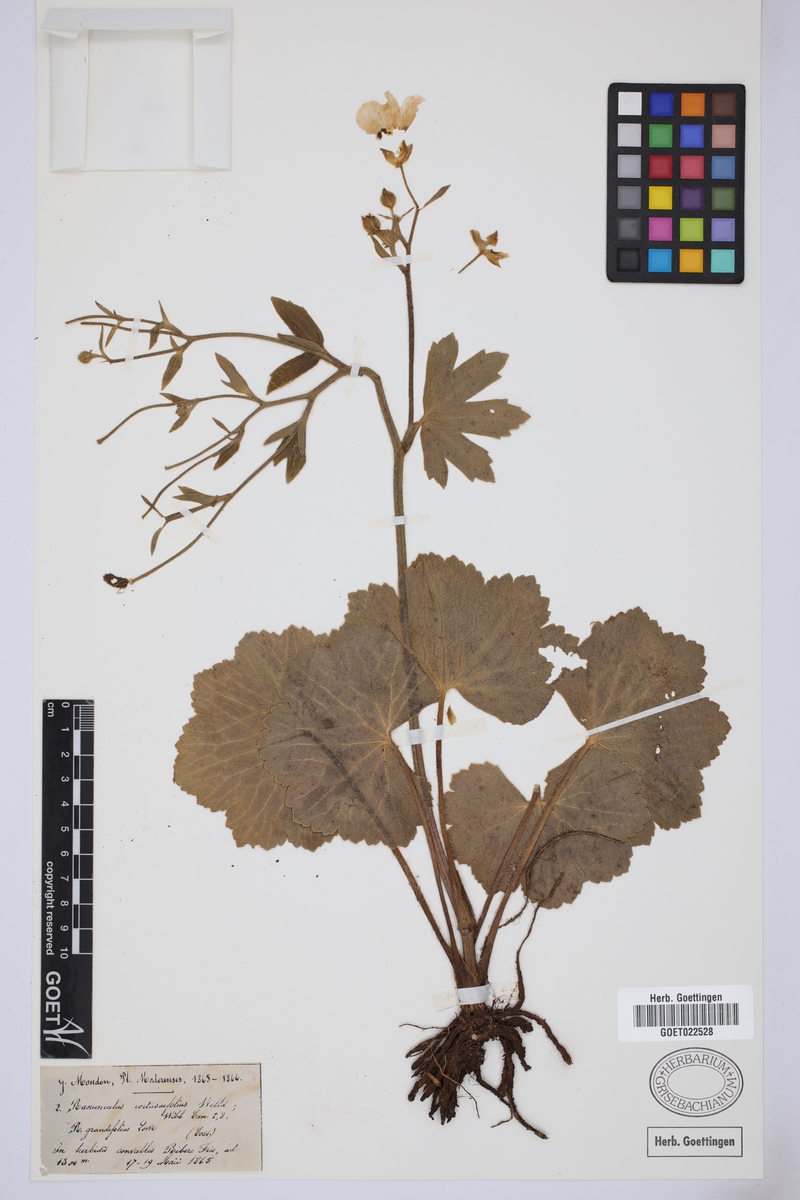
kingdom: Plantae
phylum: Tracheophyta
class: Magnoliopsida
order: Ranunculales
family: Ranunculaceae
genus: Ranunculus
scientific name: Ranunculus cortusifolius
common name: Azores buttercup
